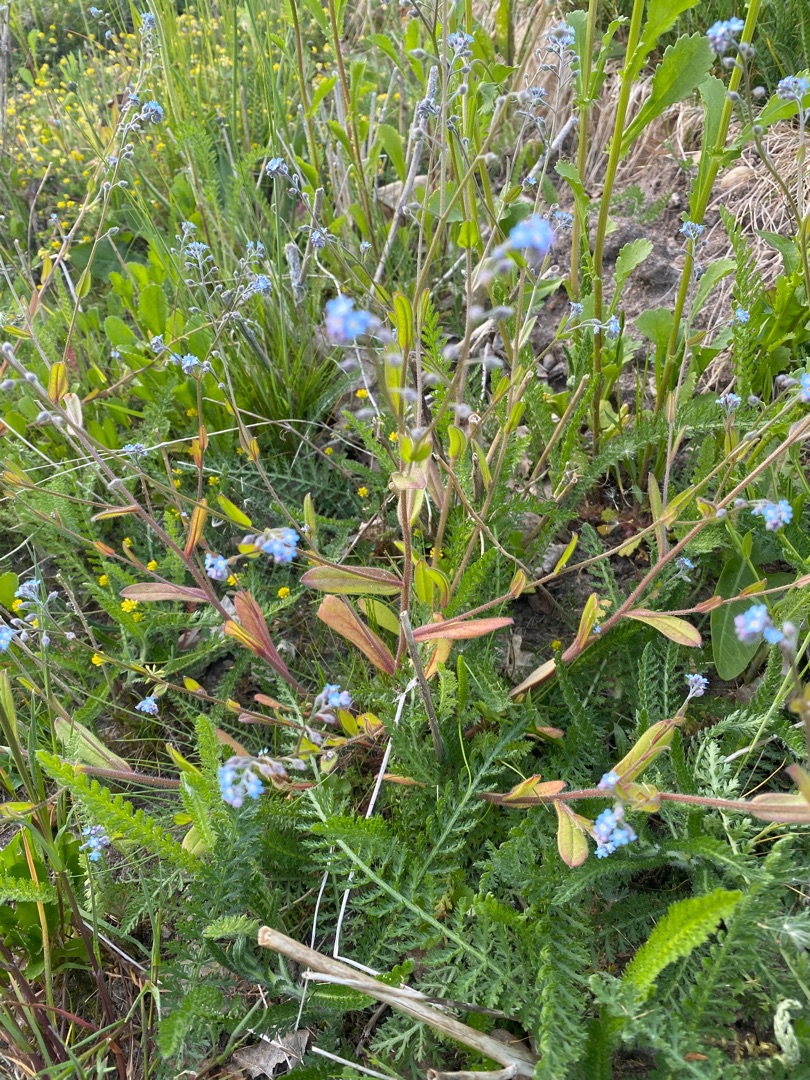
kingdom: Plantae
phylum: Tracheophyta
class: Magnoliopsida
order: Boraginales
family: Boraginaceae
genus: Myosotis
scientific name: Myosotis arvensis
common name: Mark-forglemmigej
